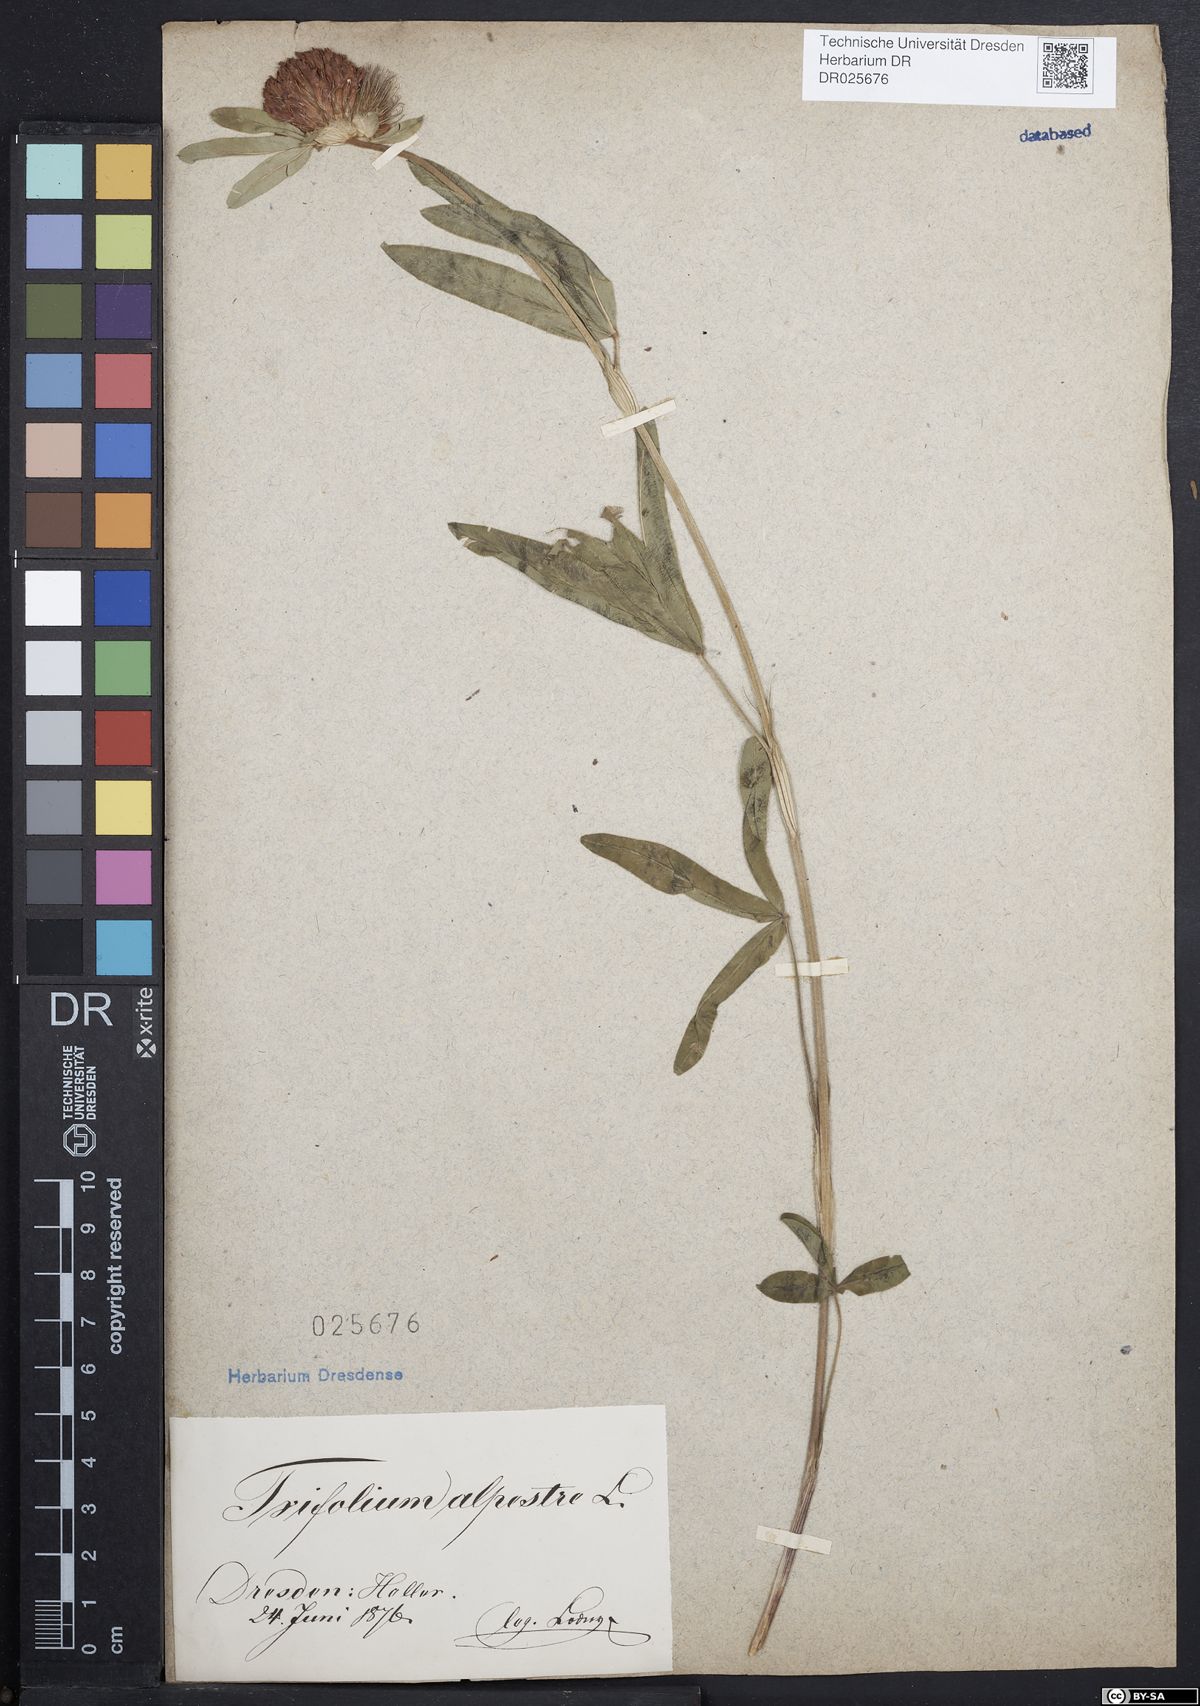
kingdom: Plantae
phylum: Tracheophyta
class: Magnoliopsida
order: Fabales
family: Fabaceae
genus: Trifolium
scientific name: Trifolium alpestre
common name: Owl-head clover
